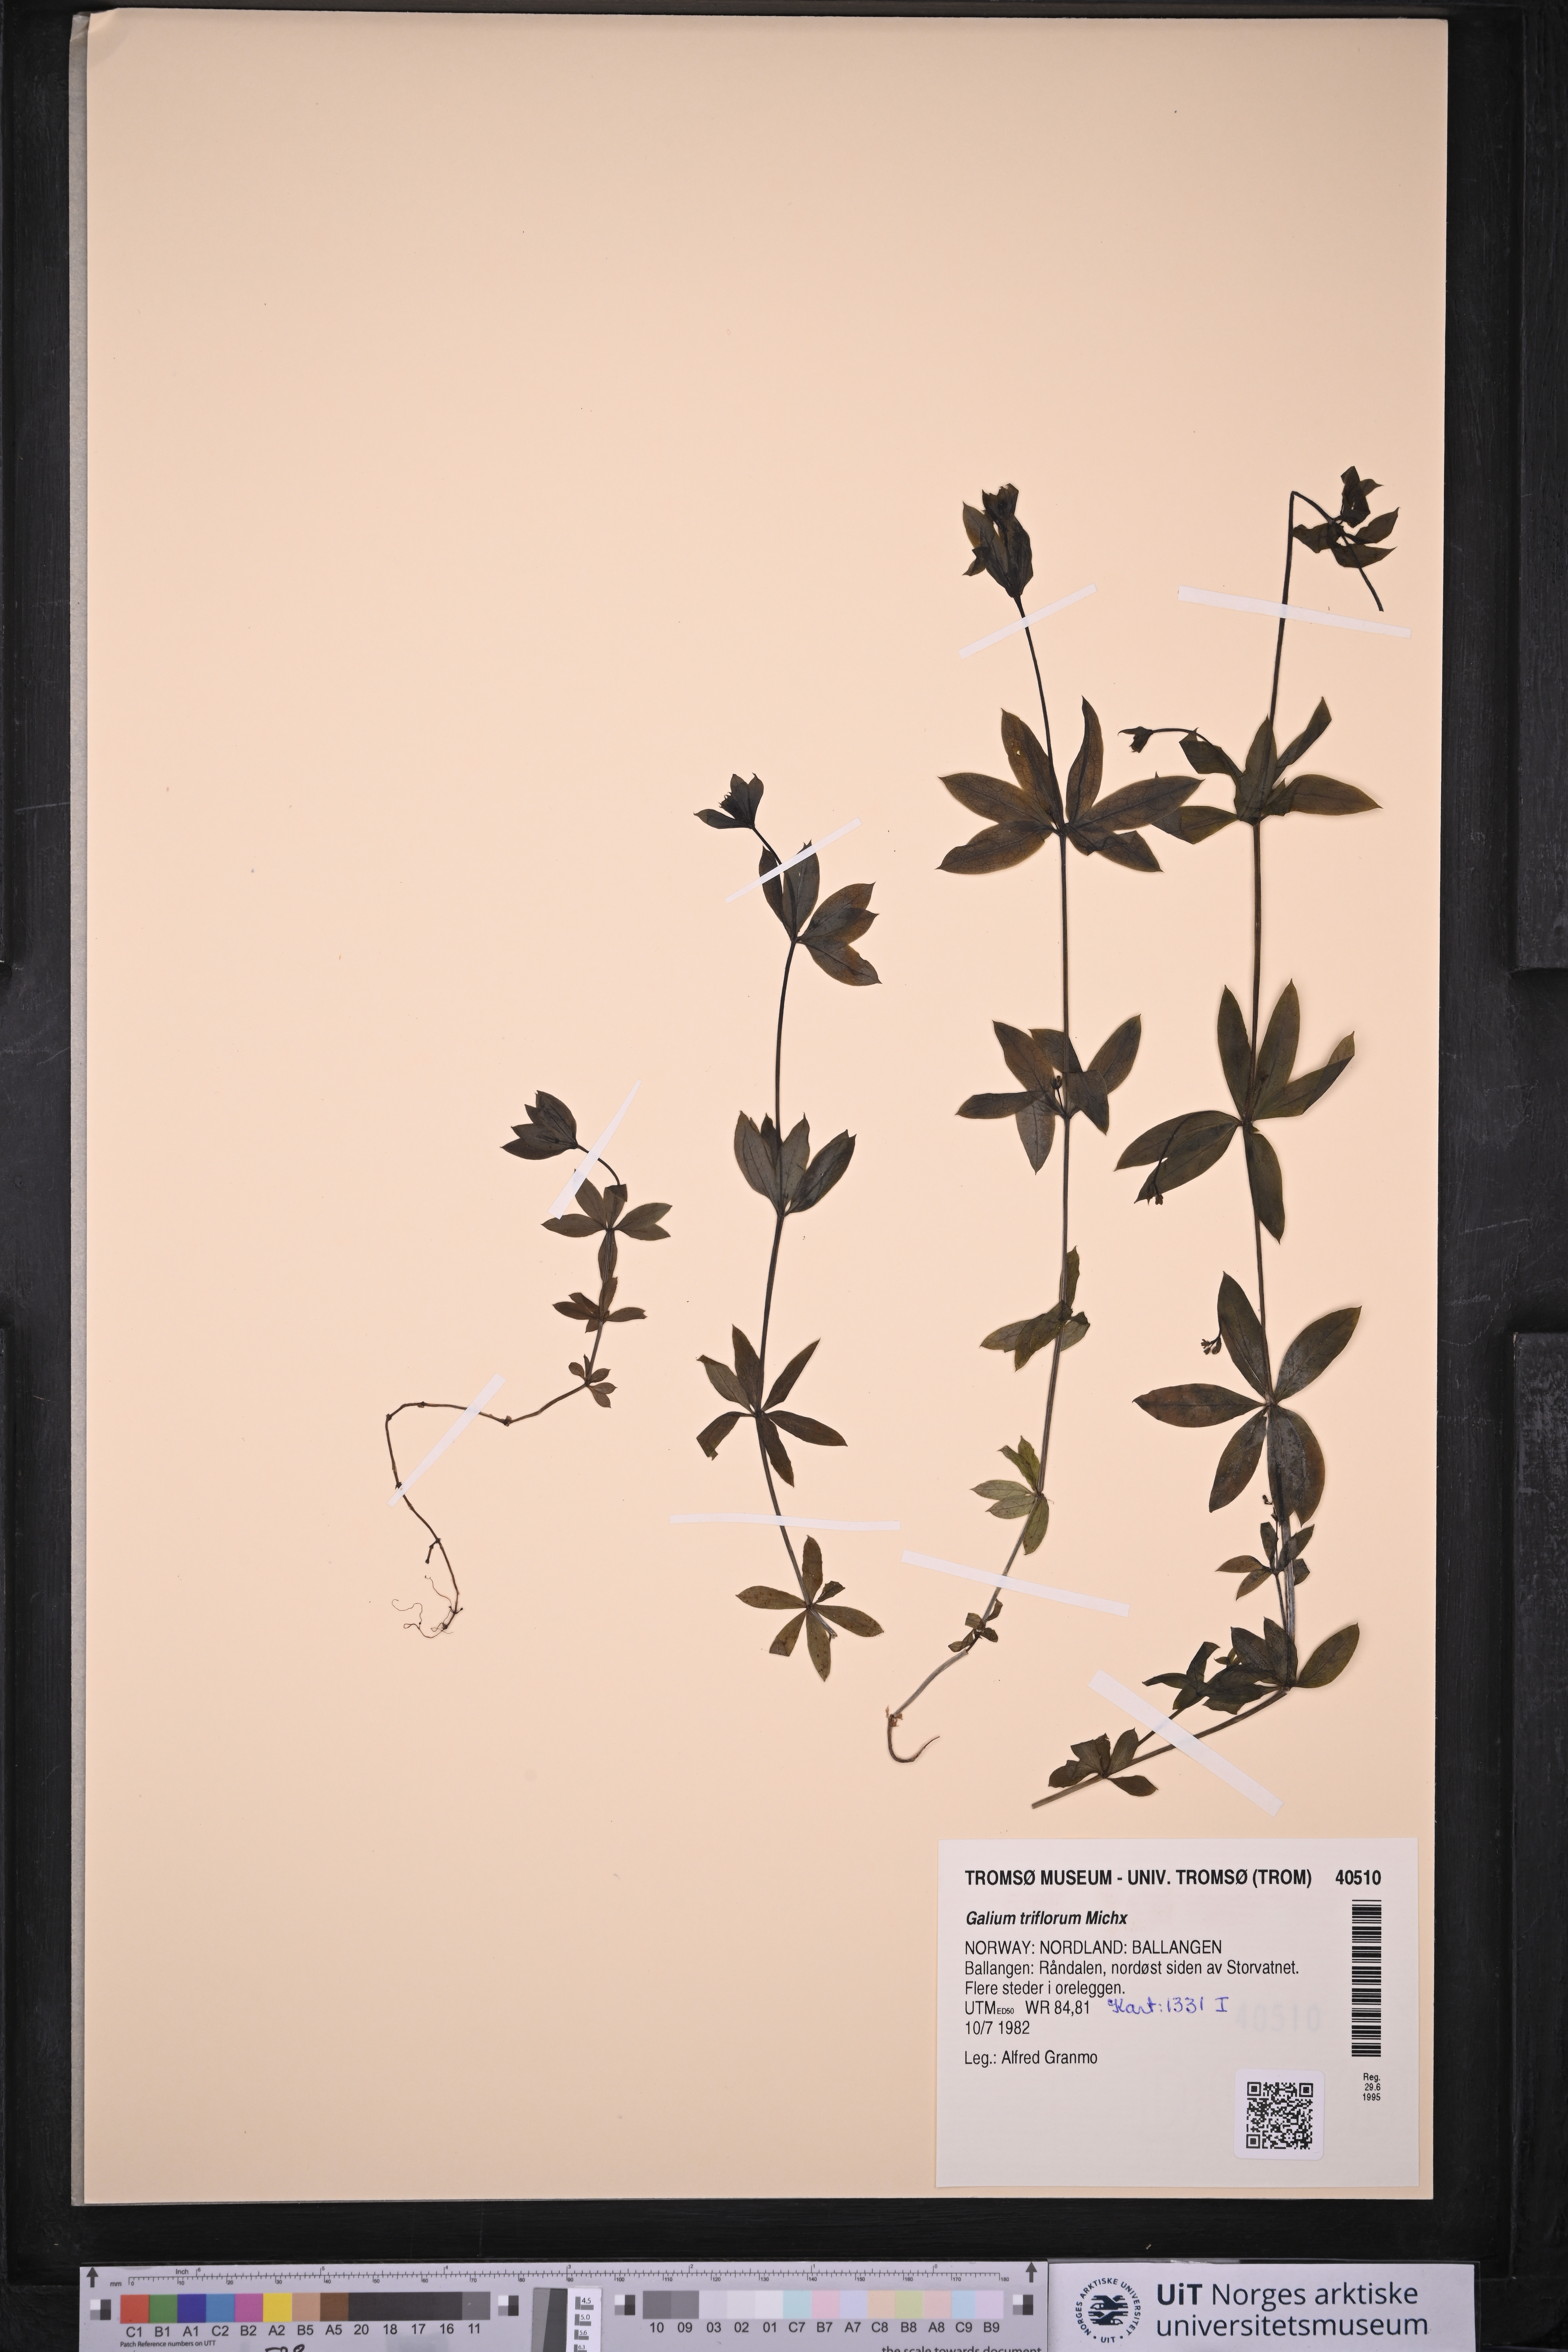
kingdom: Plantae
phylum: Tracheophyta
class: Magnoliopsida
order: Gentianales
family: Rubiaceae
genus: Galium
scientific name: Galium triflorum
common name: Fragrant bedstraw
